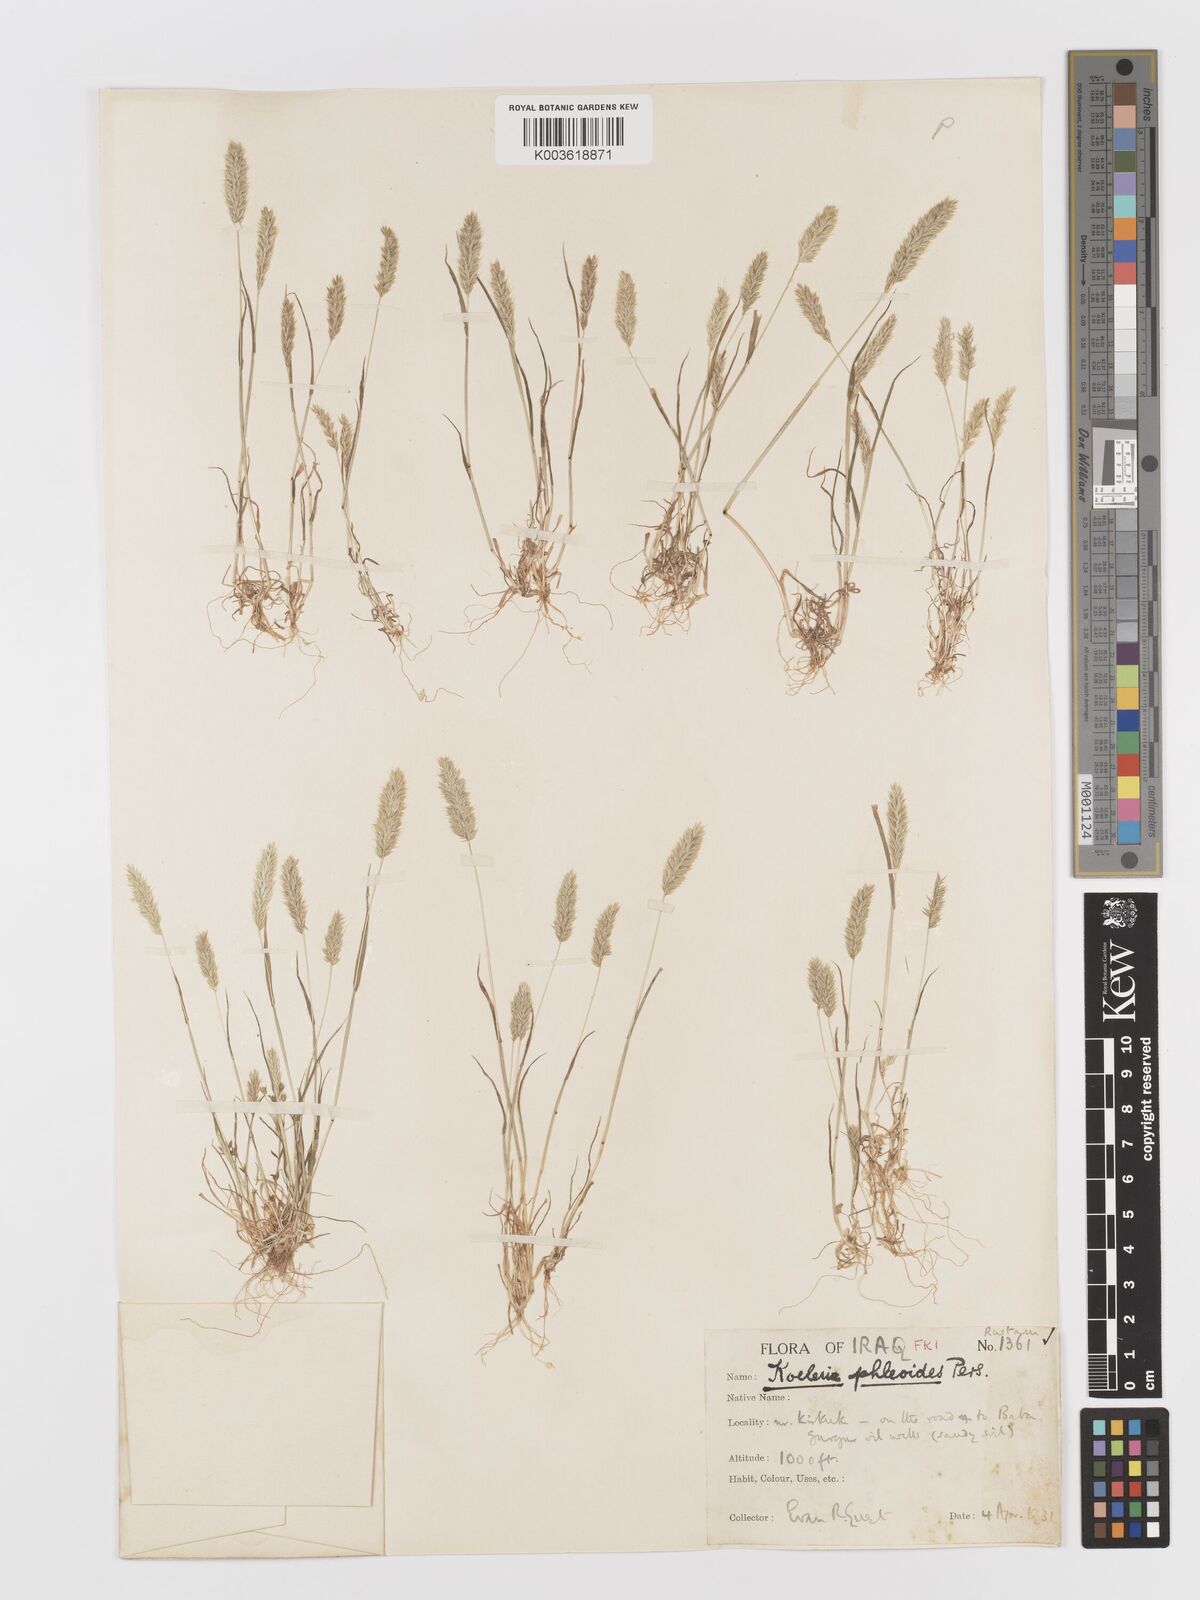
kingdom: Plantae
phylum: Tracheophyta
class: Liliopsida
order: Poales
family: Poaceae
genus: Rostraria
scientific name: Rostraria cristata
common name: Mediterranean hair-grass
